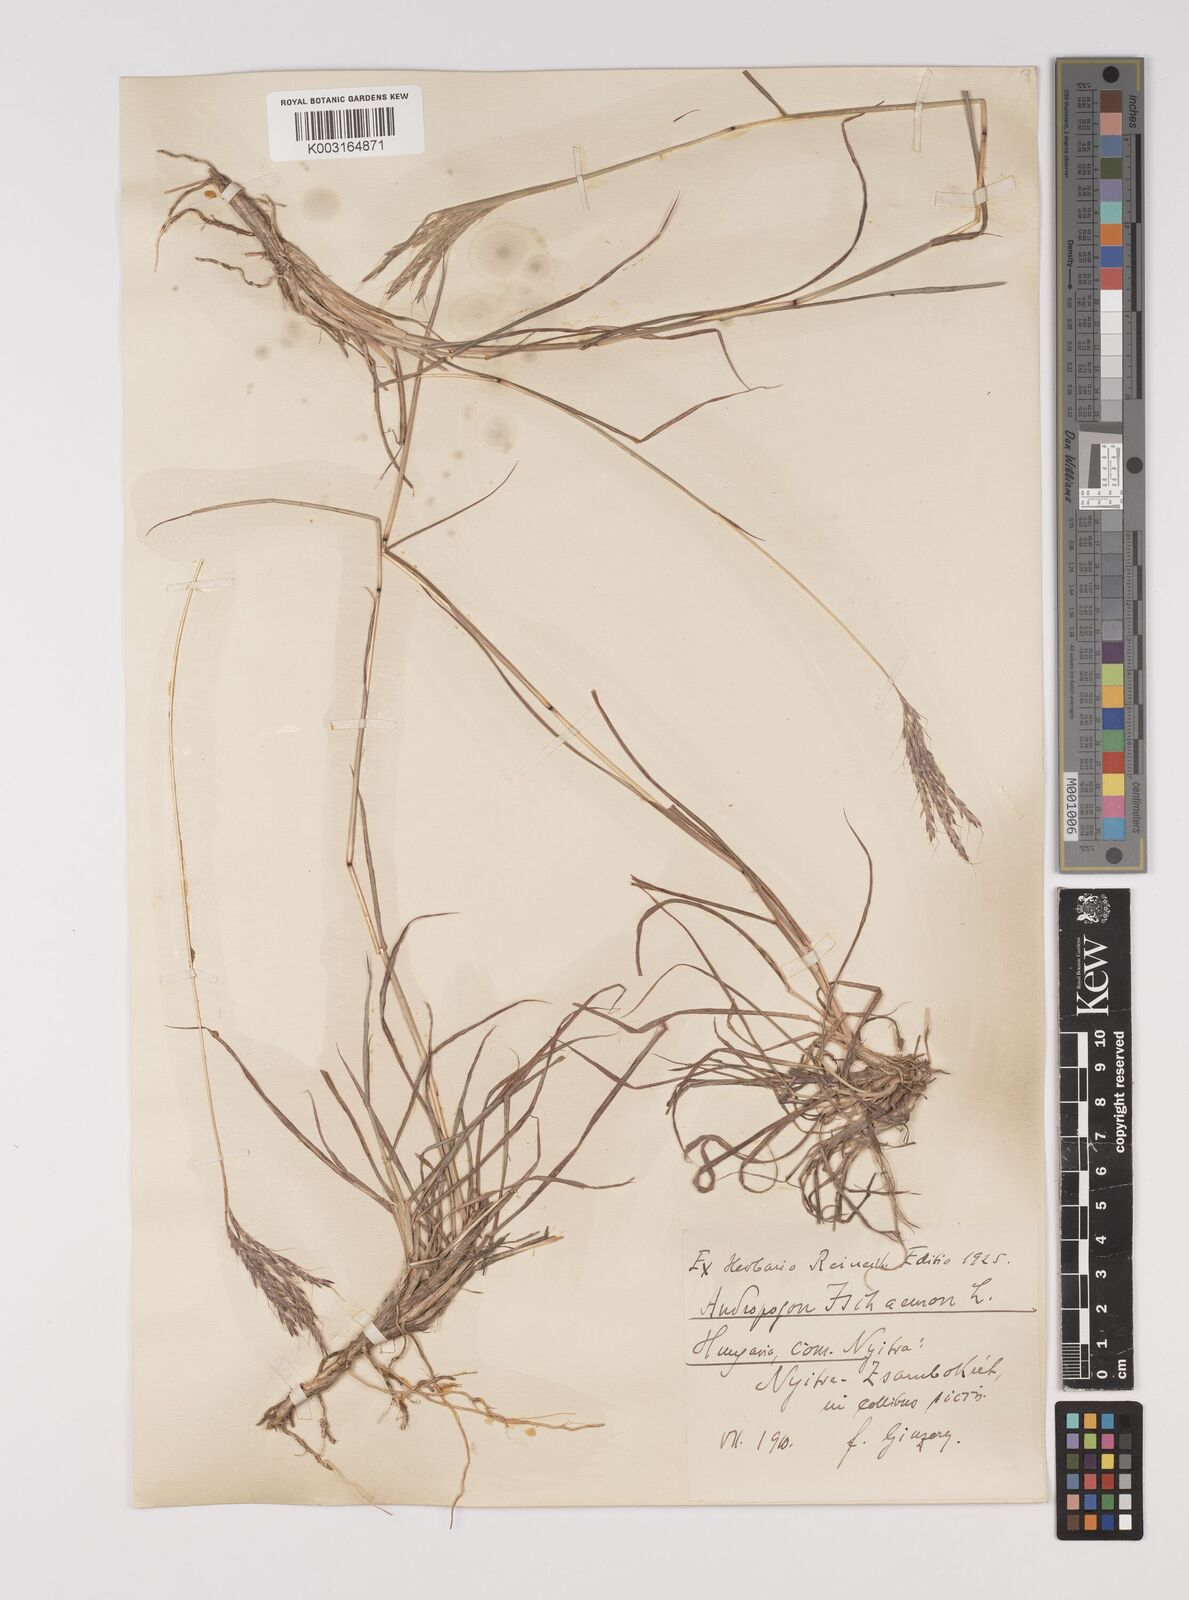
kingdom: Plantae
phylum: Tracheophyta
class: Liliopsida
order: Poales
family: Poaceae
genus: Bothriochloa
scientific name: Bothriochloa ischaemum
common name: Yellow bluestem
